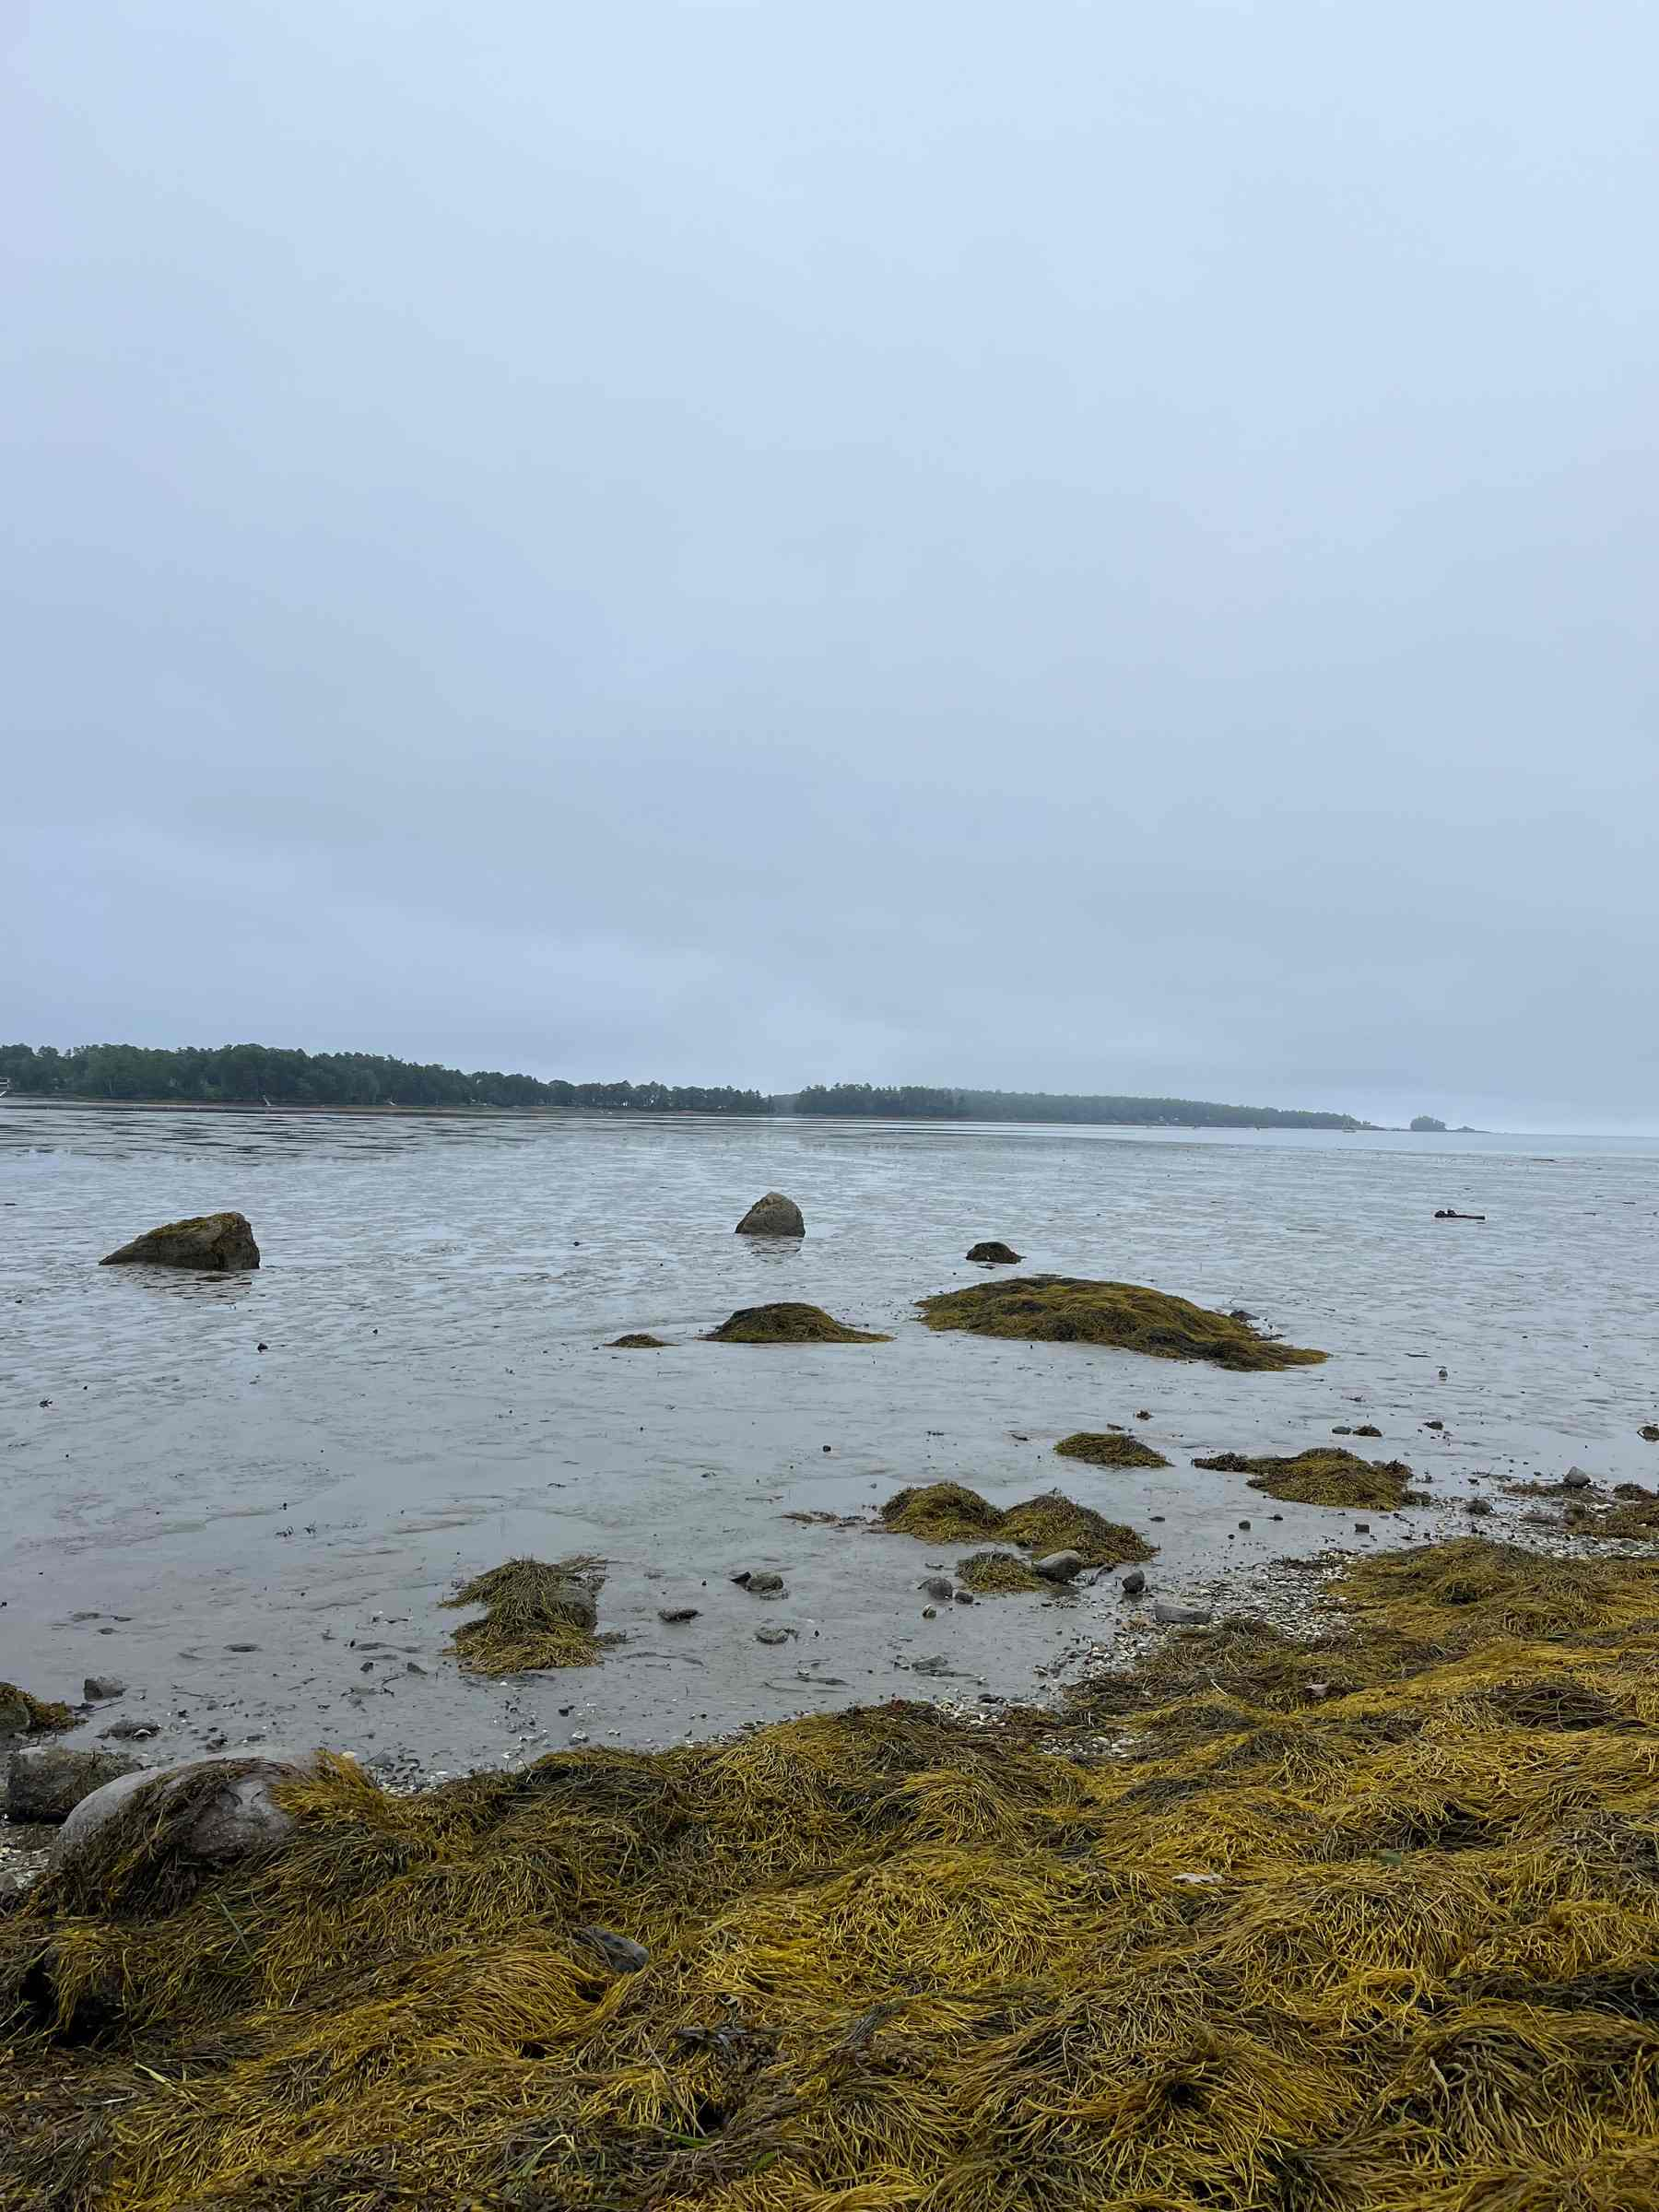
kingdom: Chromista
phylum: Ochrophyta
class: Phaeophyceae
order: Fucales
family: Fucaceae
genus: Ascophyllum
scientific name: Ascophyllum nodosum
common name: Rockweed
